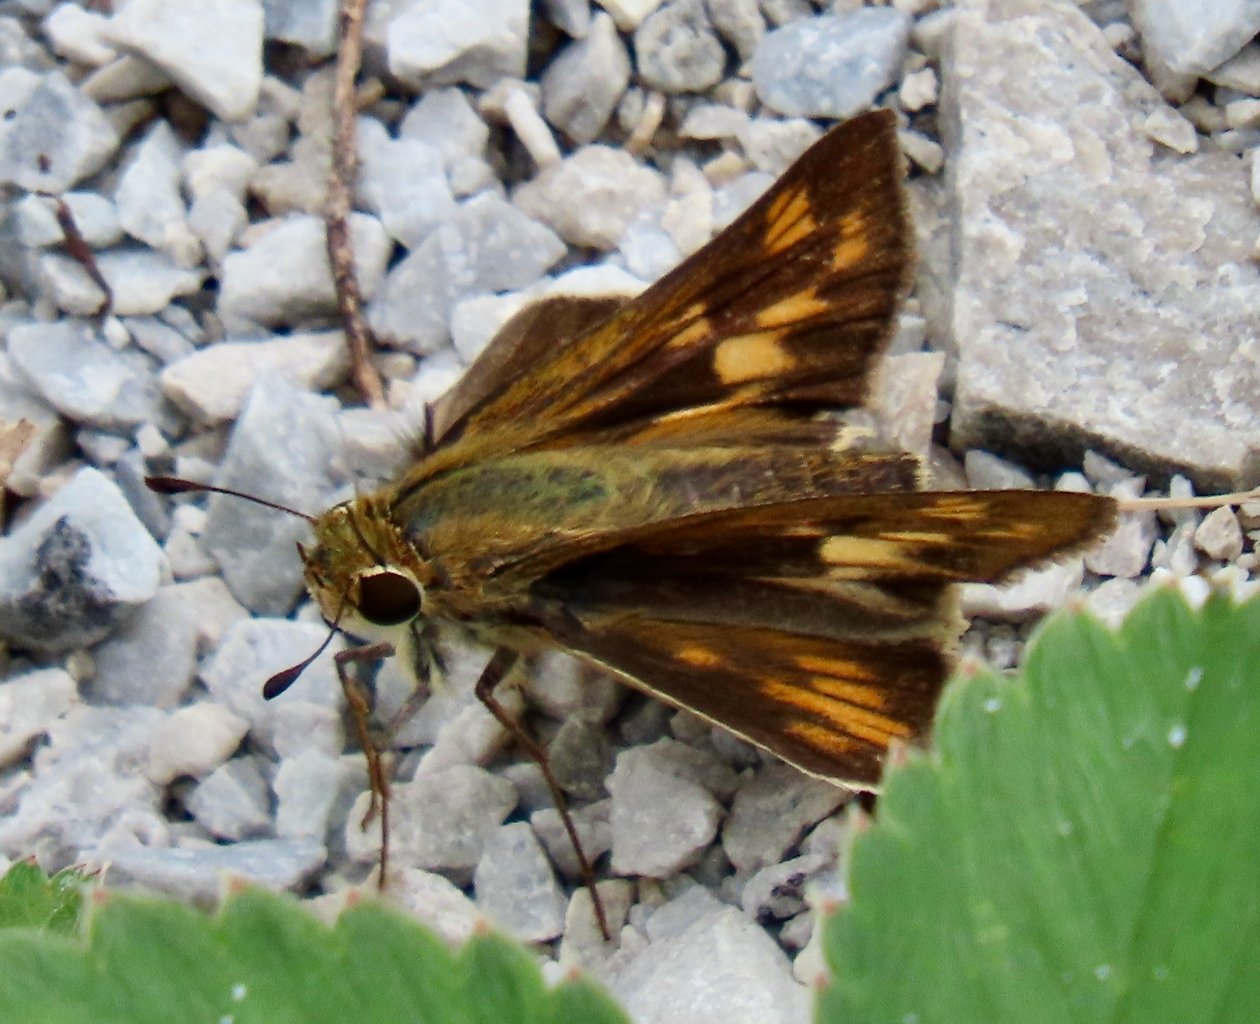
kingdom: Animalia
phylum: Arthropoda
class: Insecta
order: Lepidoptera
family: Hesperiidae
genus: Hylephila
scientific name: Hylephila phyleus
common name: Fiery Skipper
